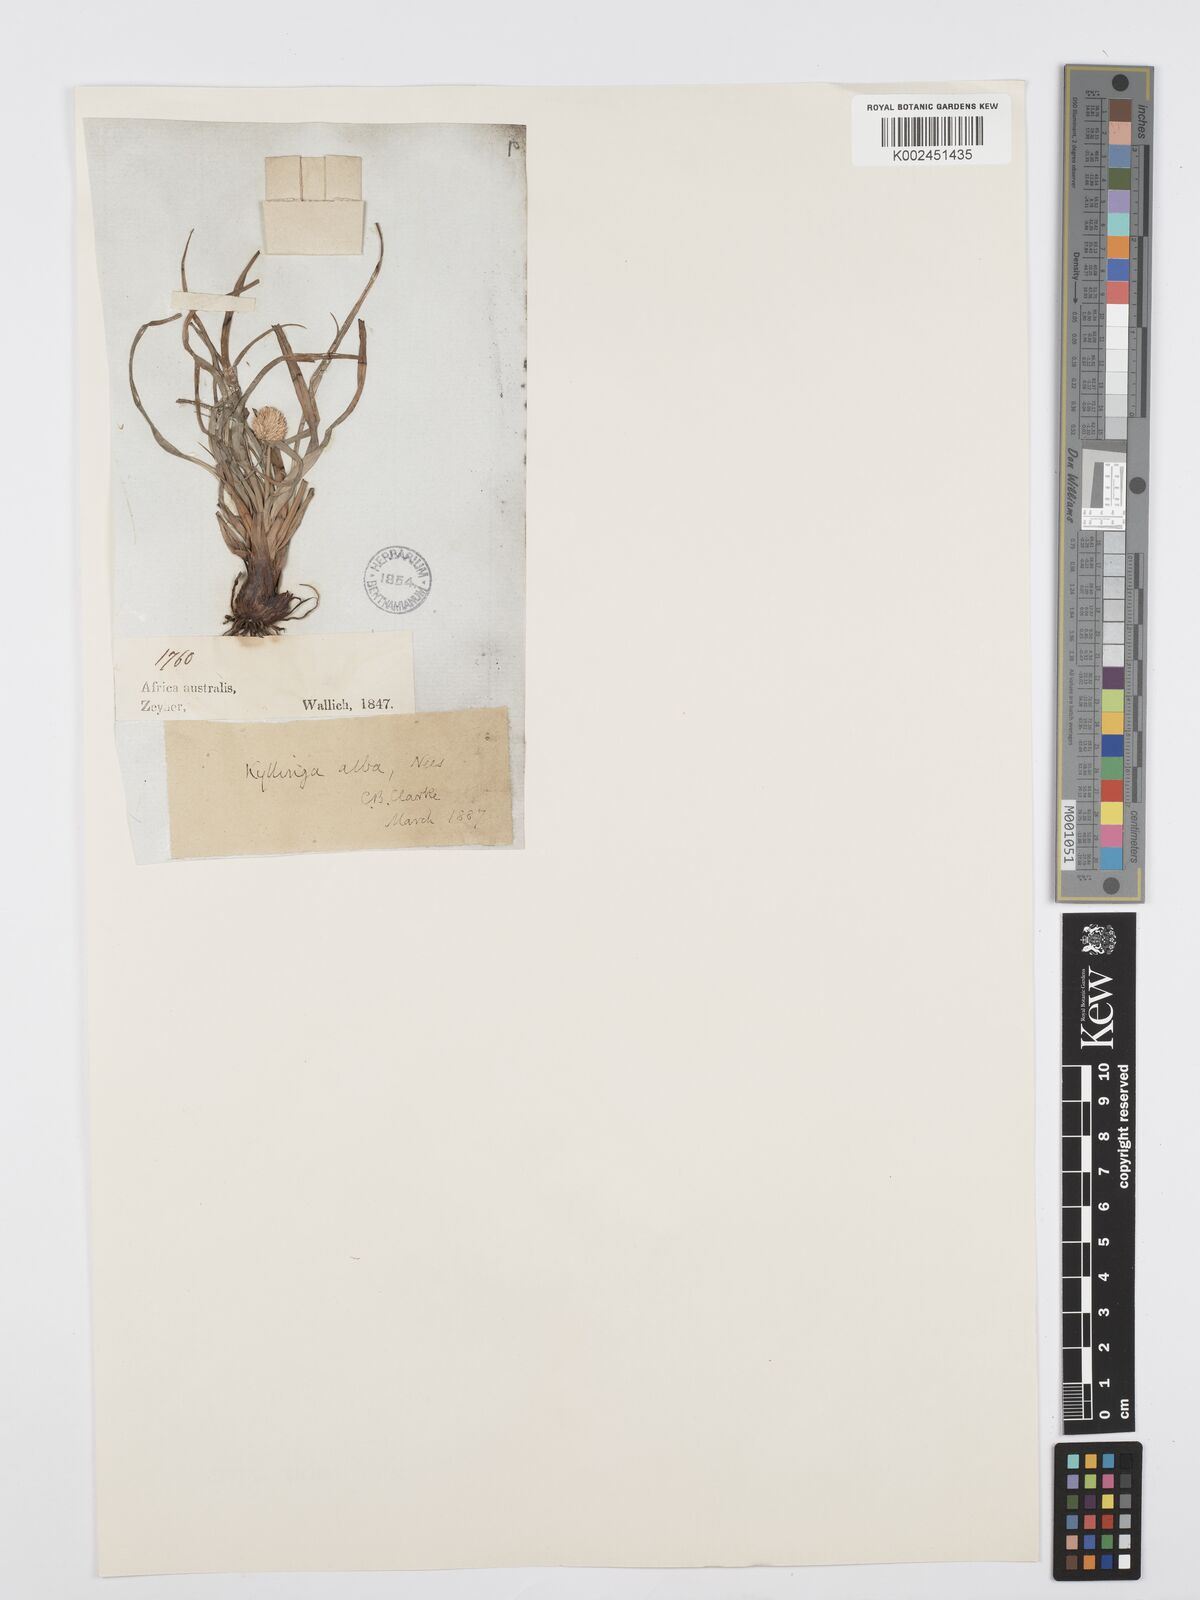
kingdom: Plantae
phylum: Tracheophyta
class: Liliopsida
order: Poales
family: Cyperaceae
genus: Cyperus
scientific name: Cyperus alatus
